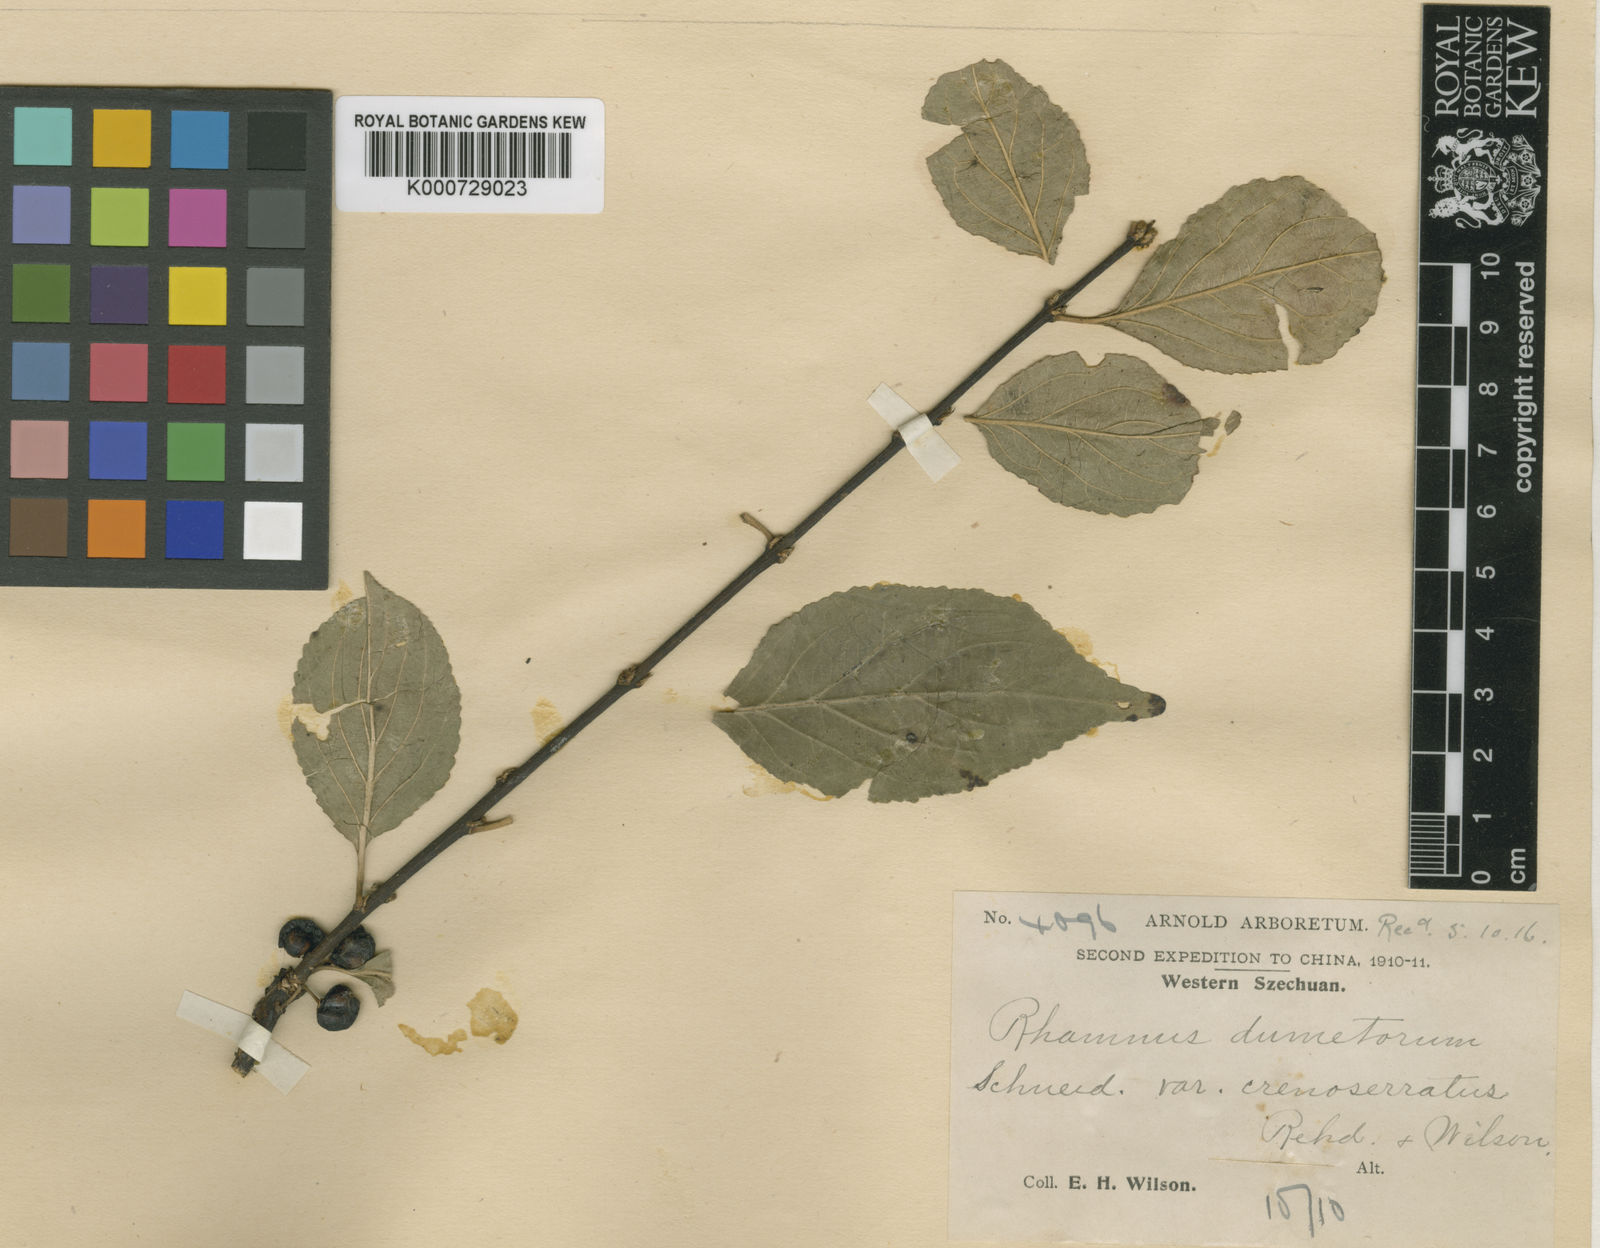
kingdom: Plantae
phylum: Tracheophyta
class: Magnoliopsida
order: Rosales
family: Rhamnaceae
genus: Rhamnus
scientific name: Rhamnus dumetorum
